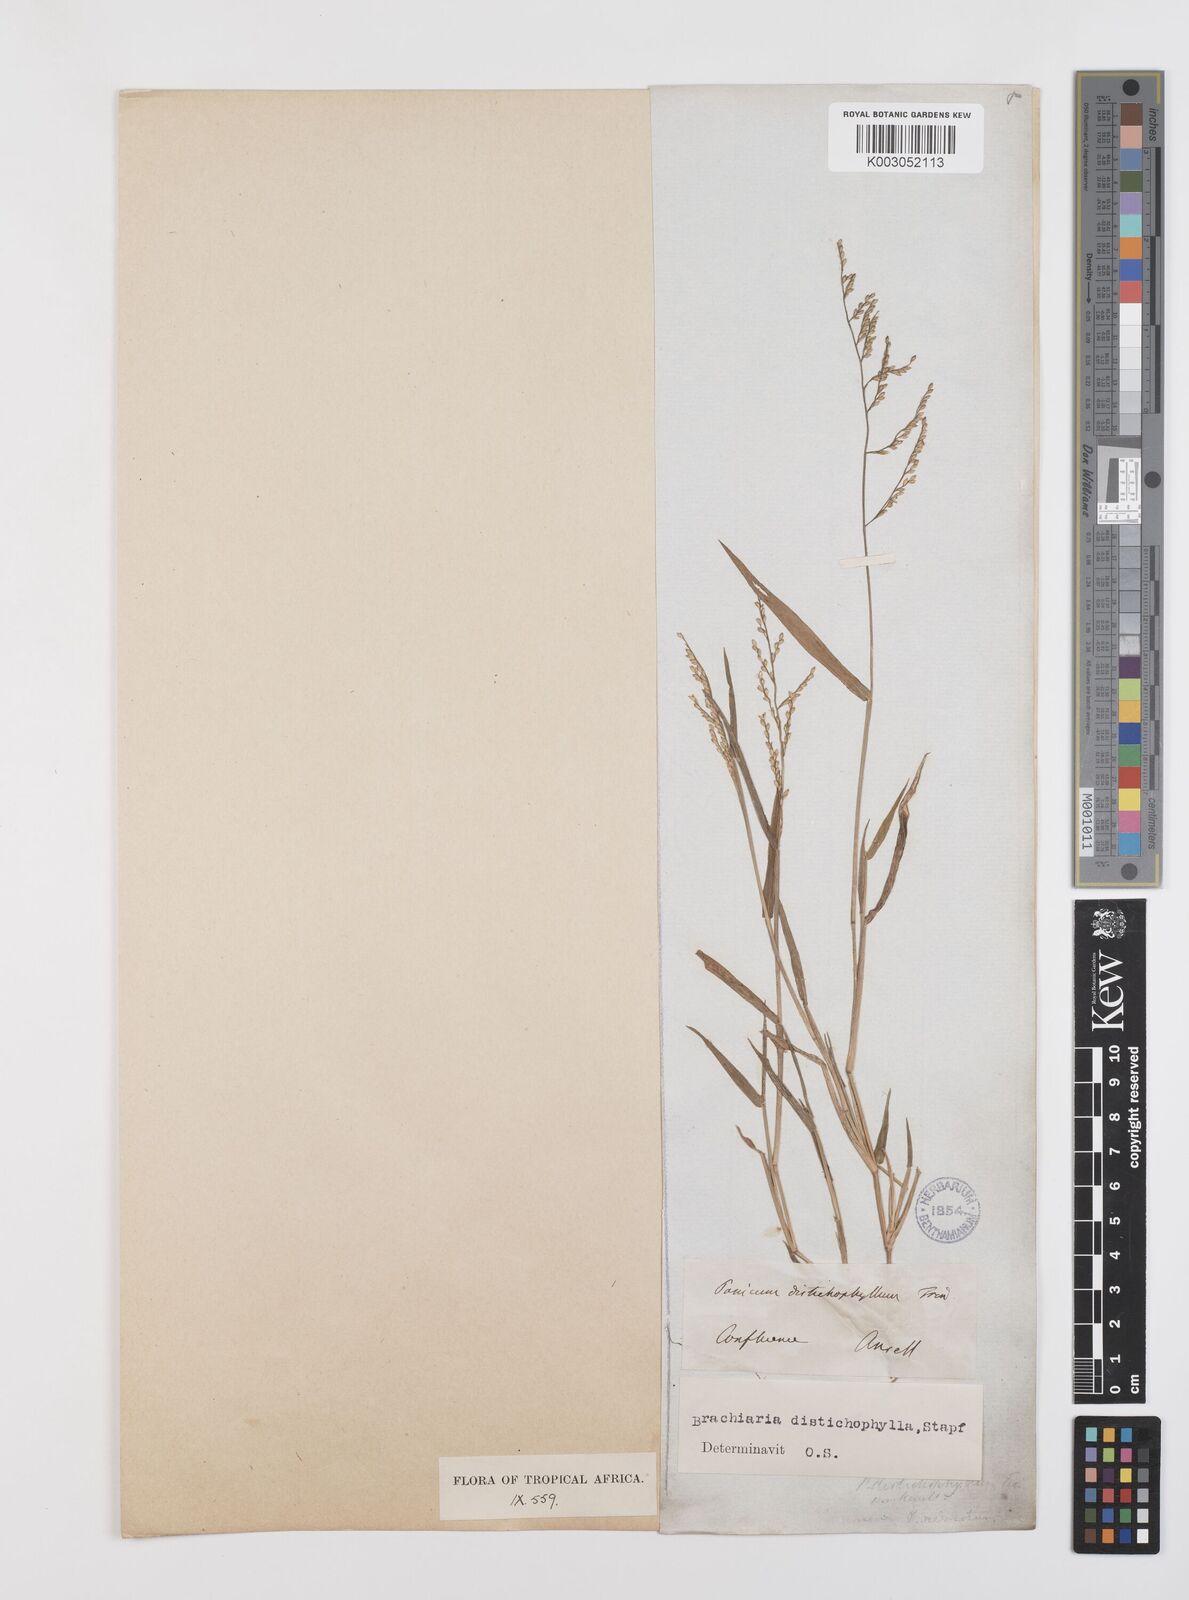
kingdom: Plantae
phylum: Tracheophyta
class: Liliopsida
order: Poales
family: Poaceae
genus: Urochloa
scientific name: Urochloa villosa
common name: Hairy signalgrass
